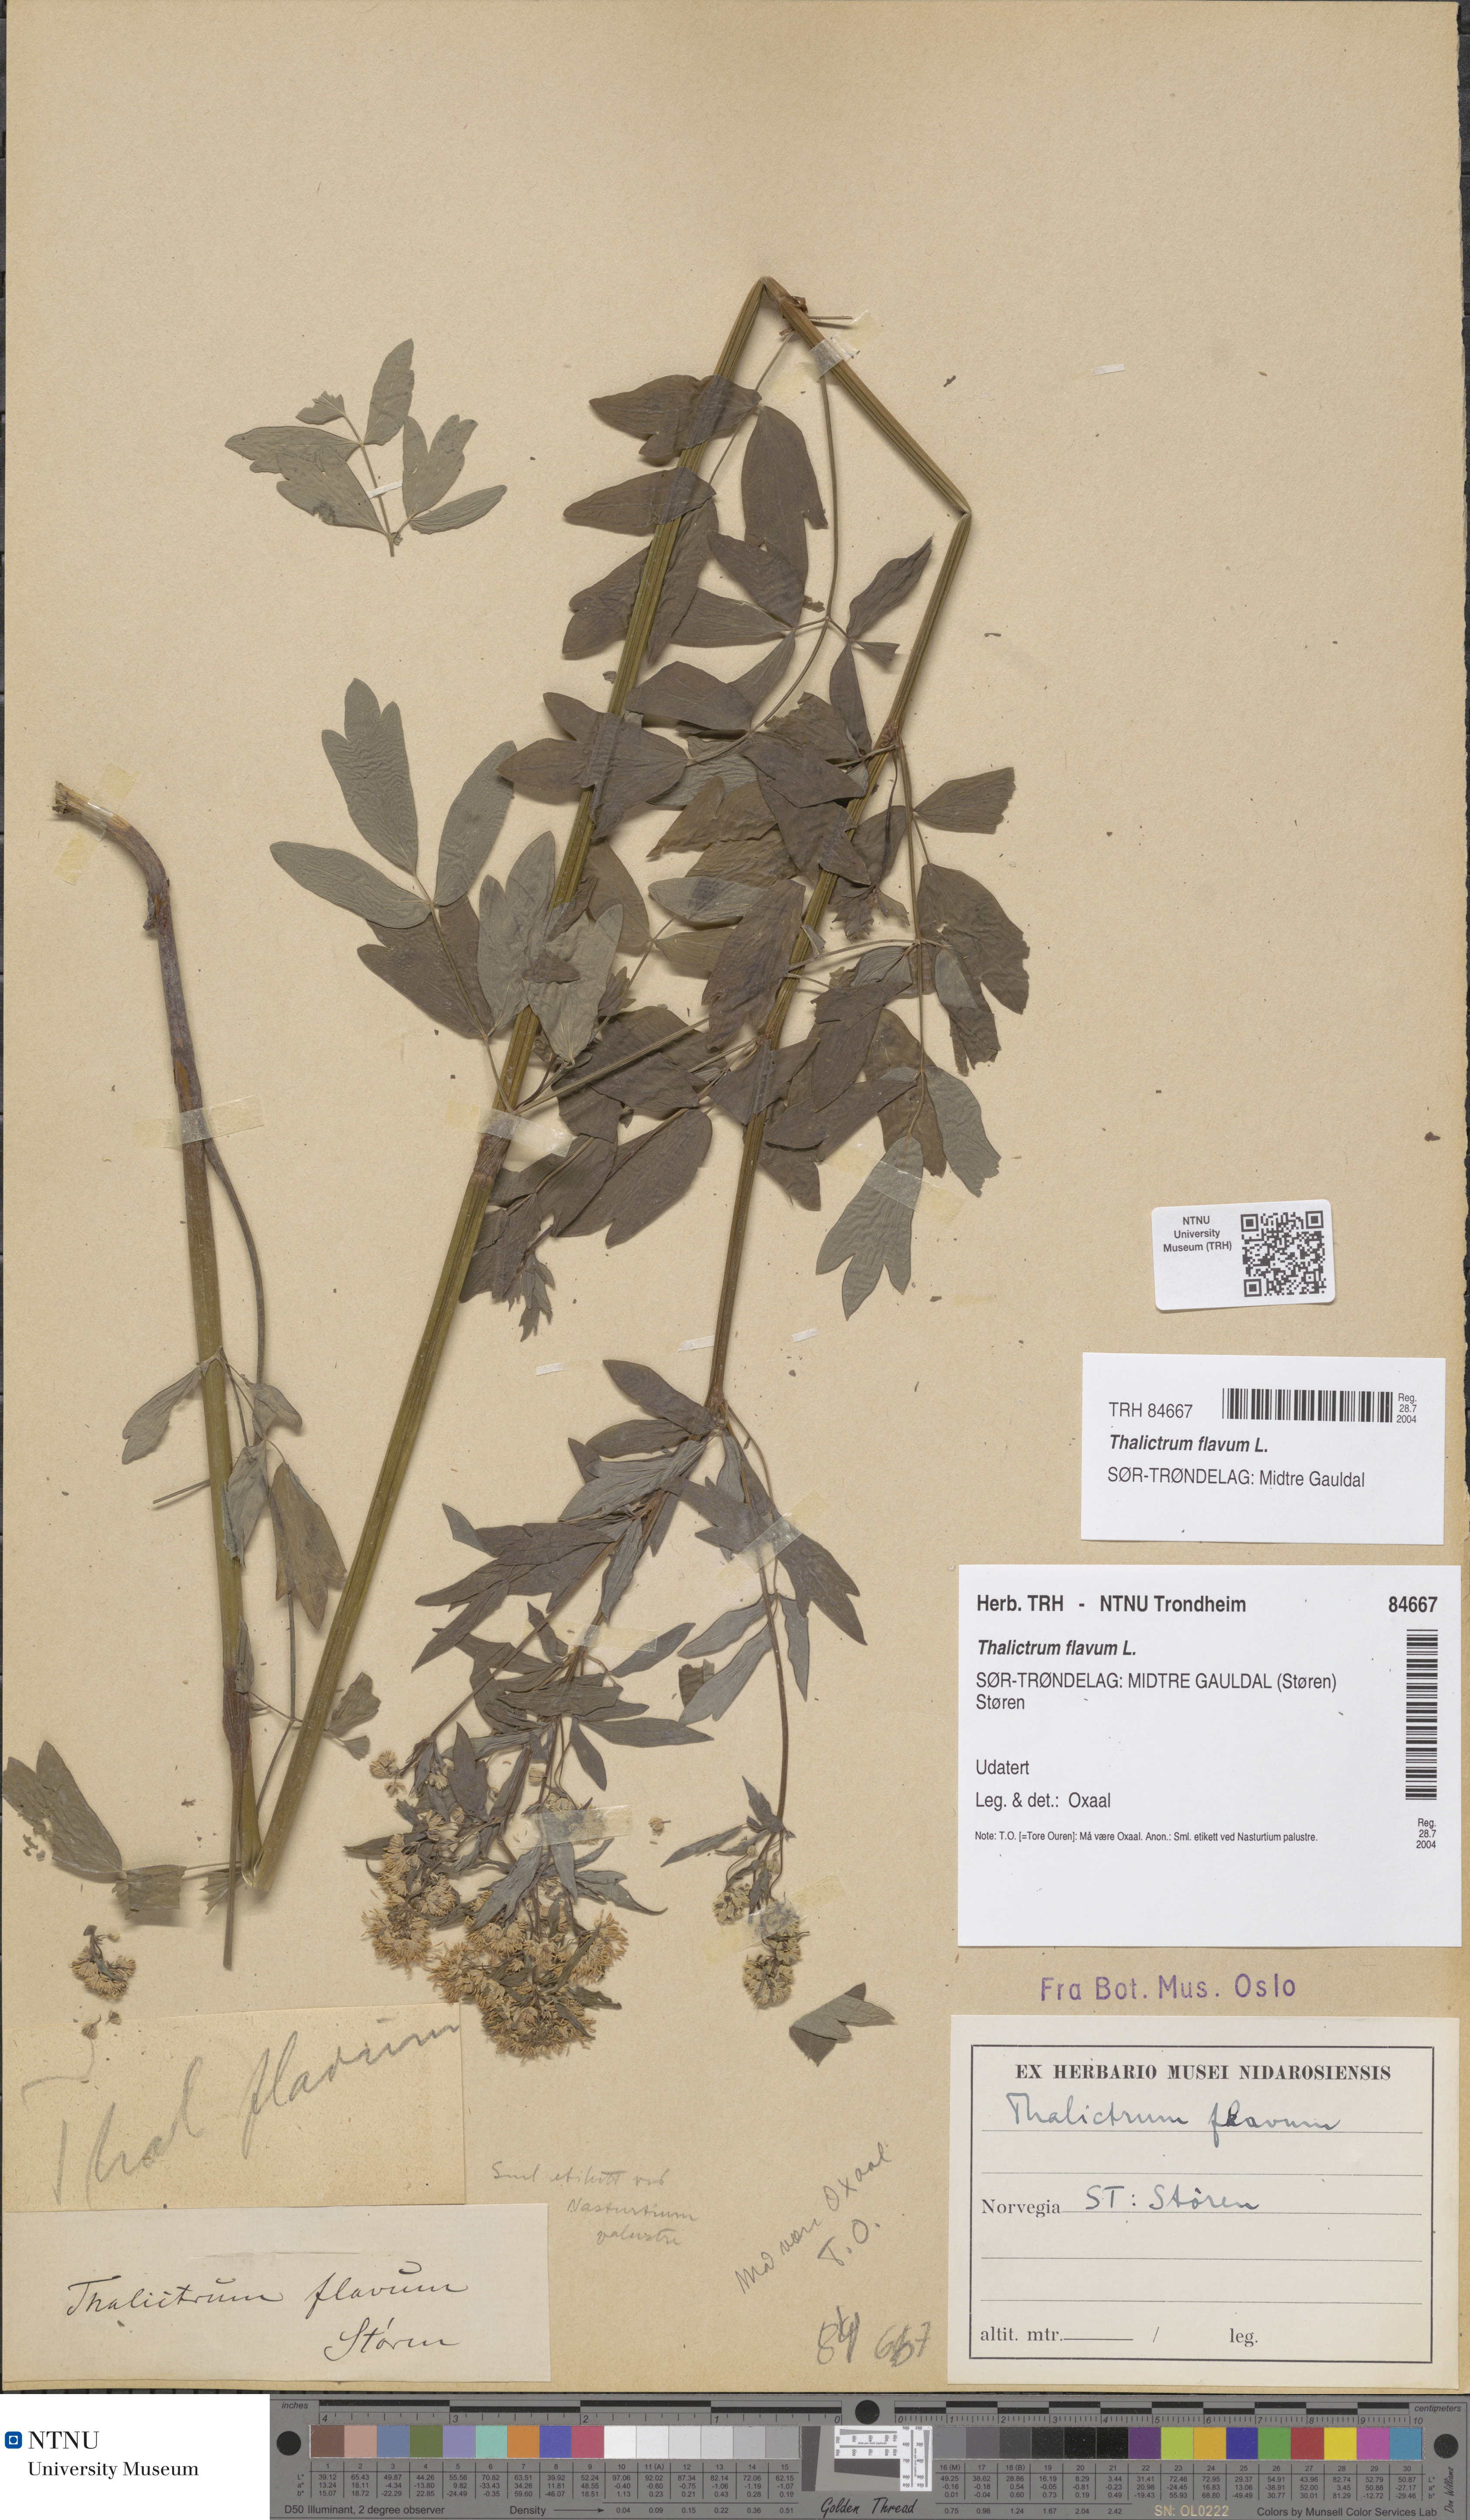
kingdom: Plantae
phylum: Tracheophyta
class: Magnoliopsida
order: Ranunculales
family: Ranunculaceae
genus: Thalictrum
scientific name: Thalictrum flavum
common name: Common meadow-rue
